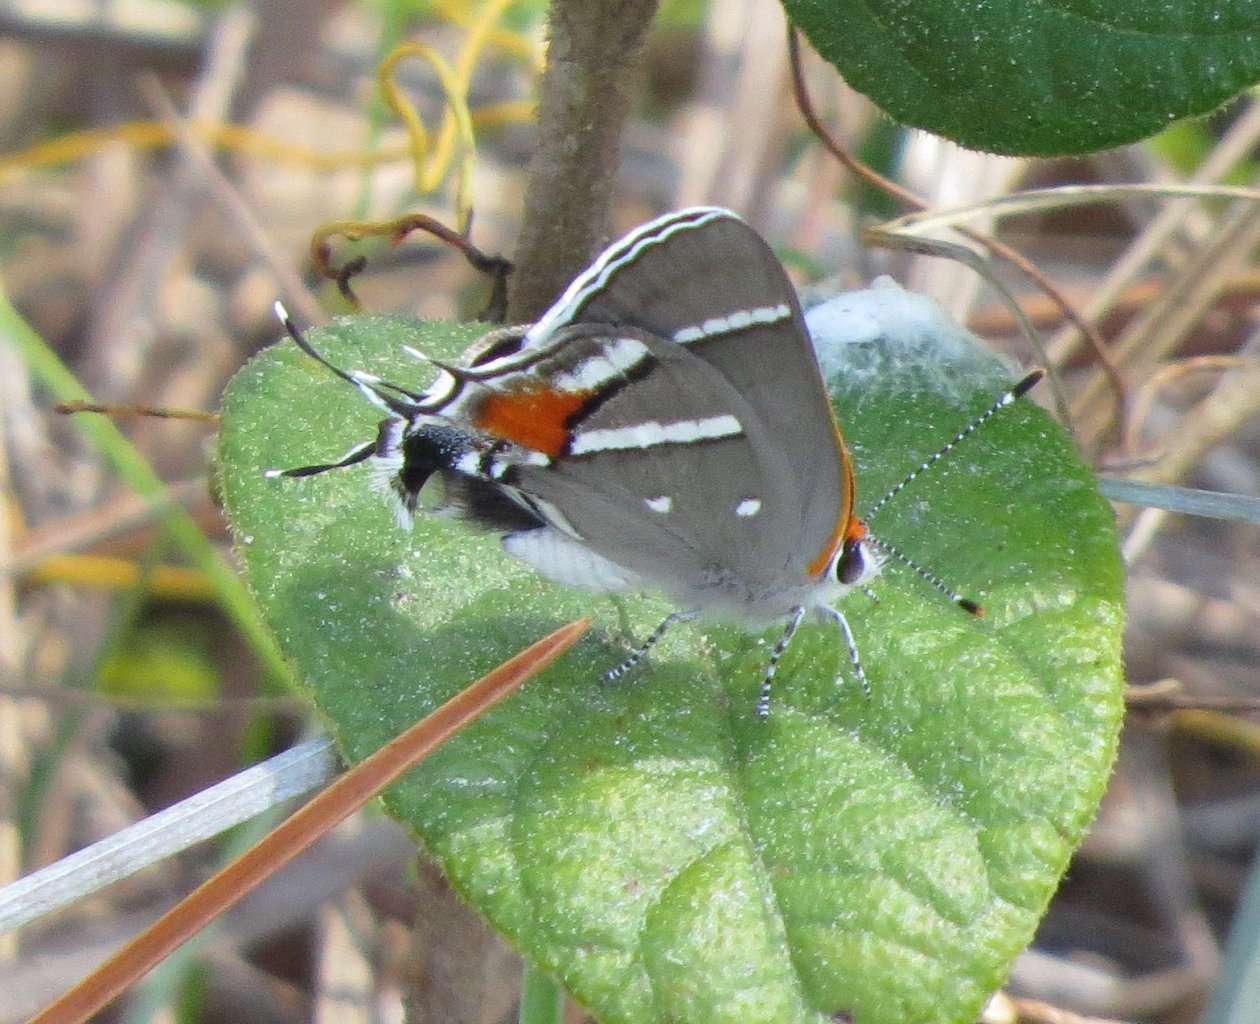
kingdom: Animalia
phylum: Arthropoda
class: Insecta
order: Lepidoptera
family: Lycaenidae
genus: Strymon
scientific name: Strymon acis
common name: Caribbean Scrub-Hairstreak
